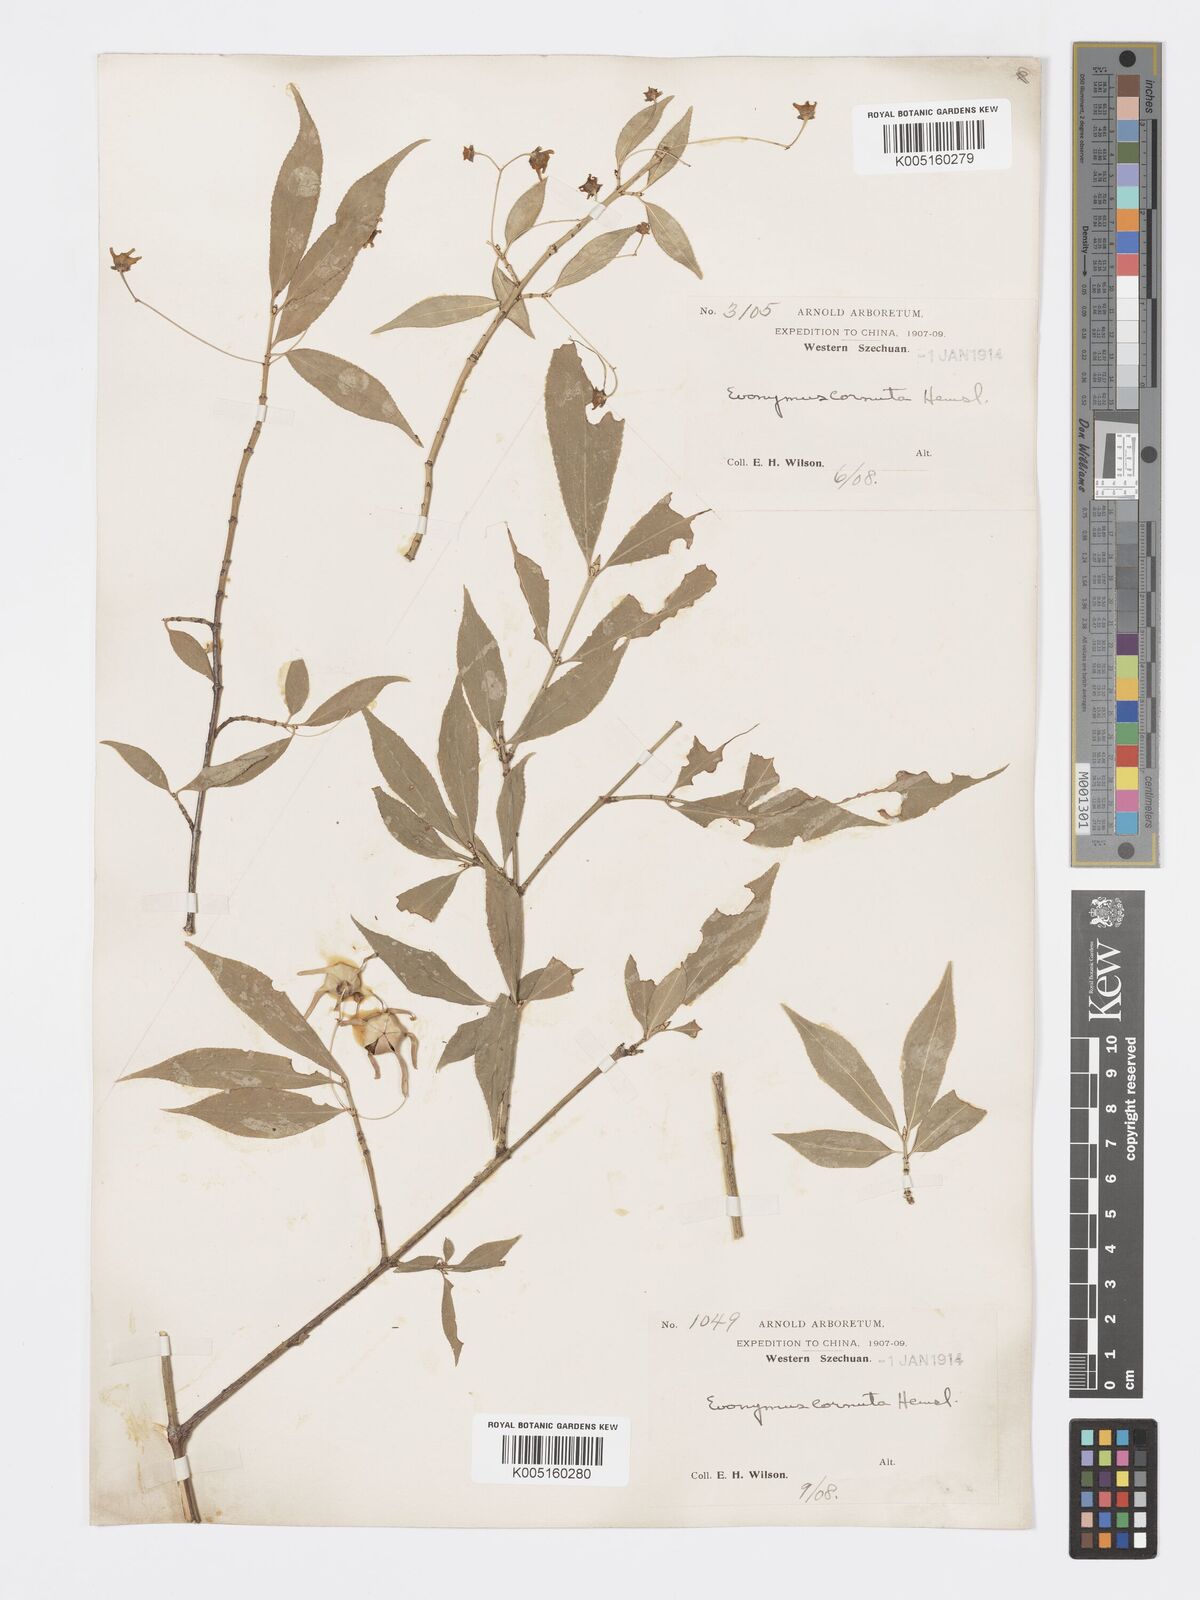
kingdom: Plantae
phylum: Tracheophyta
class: Magnoliopsida
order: Celastrales
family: Celastraceae
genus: Euonymus
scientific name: Euonymus cornutus
